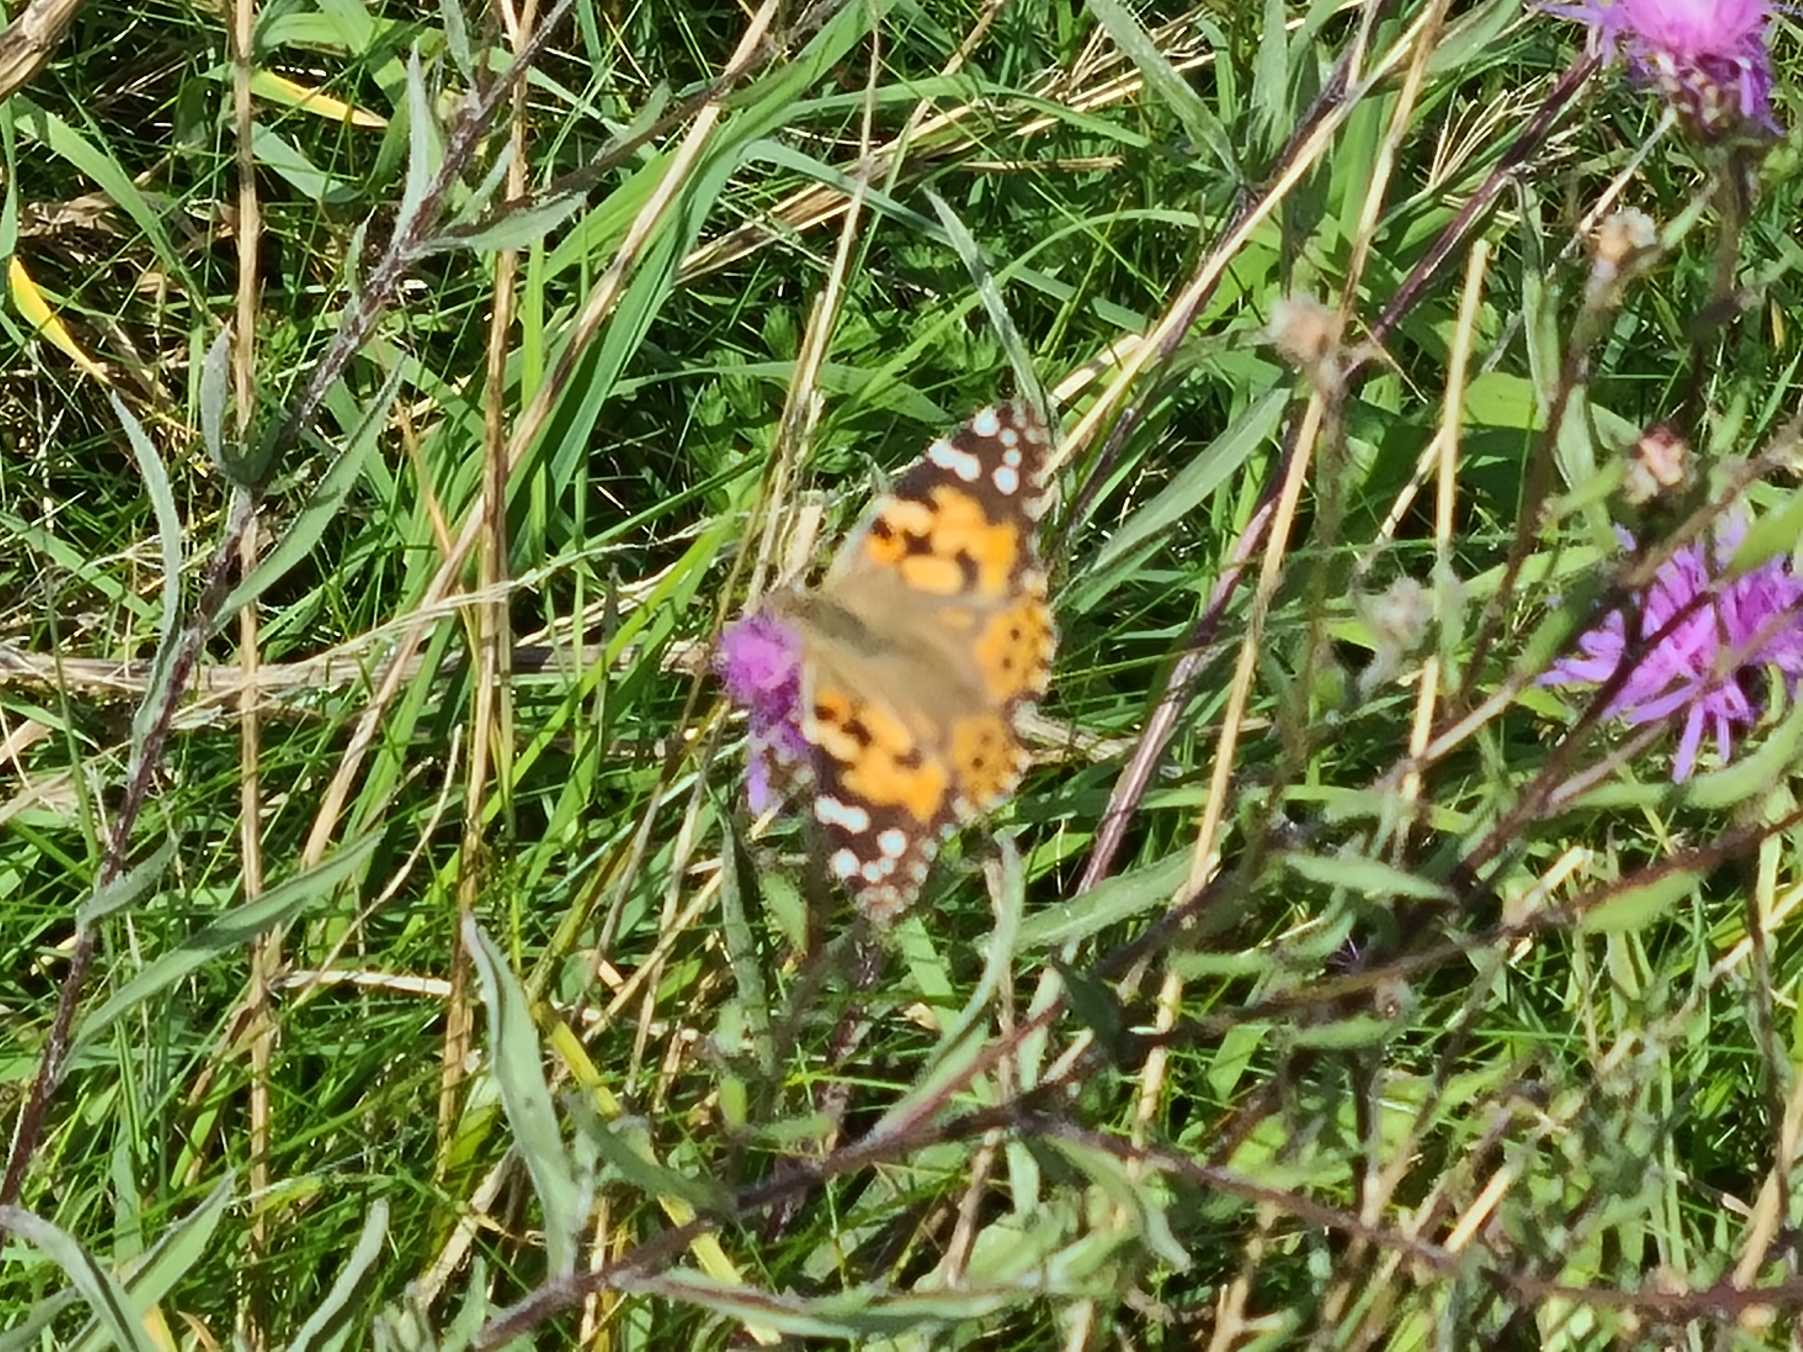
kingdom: Animalia
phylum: Arthropoda
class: Insecta
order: Lepidoptera
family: Nymphalidae
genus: Vanessa
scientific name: Vanessa cardui
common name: Tidselsommerfugl
